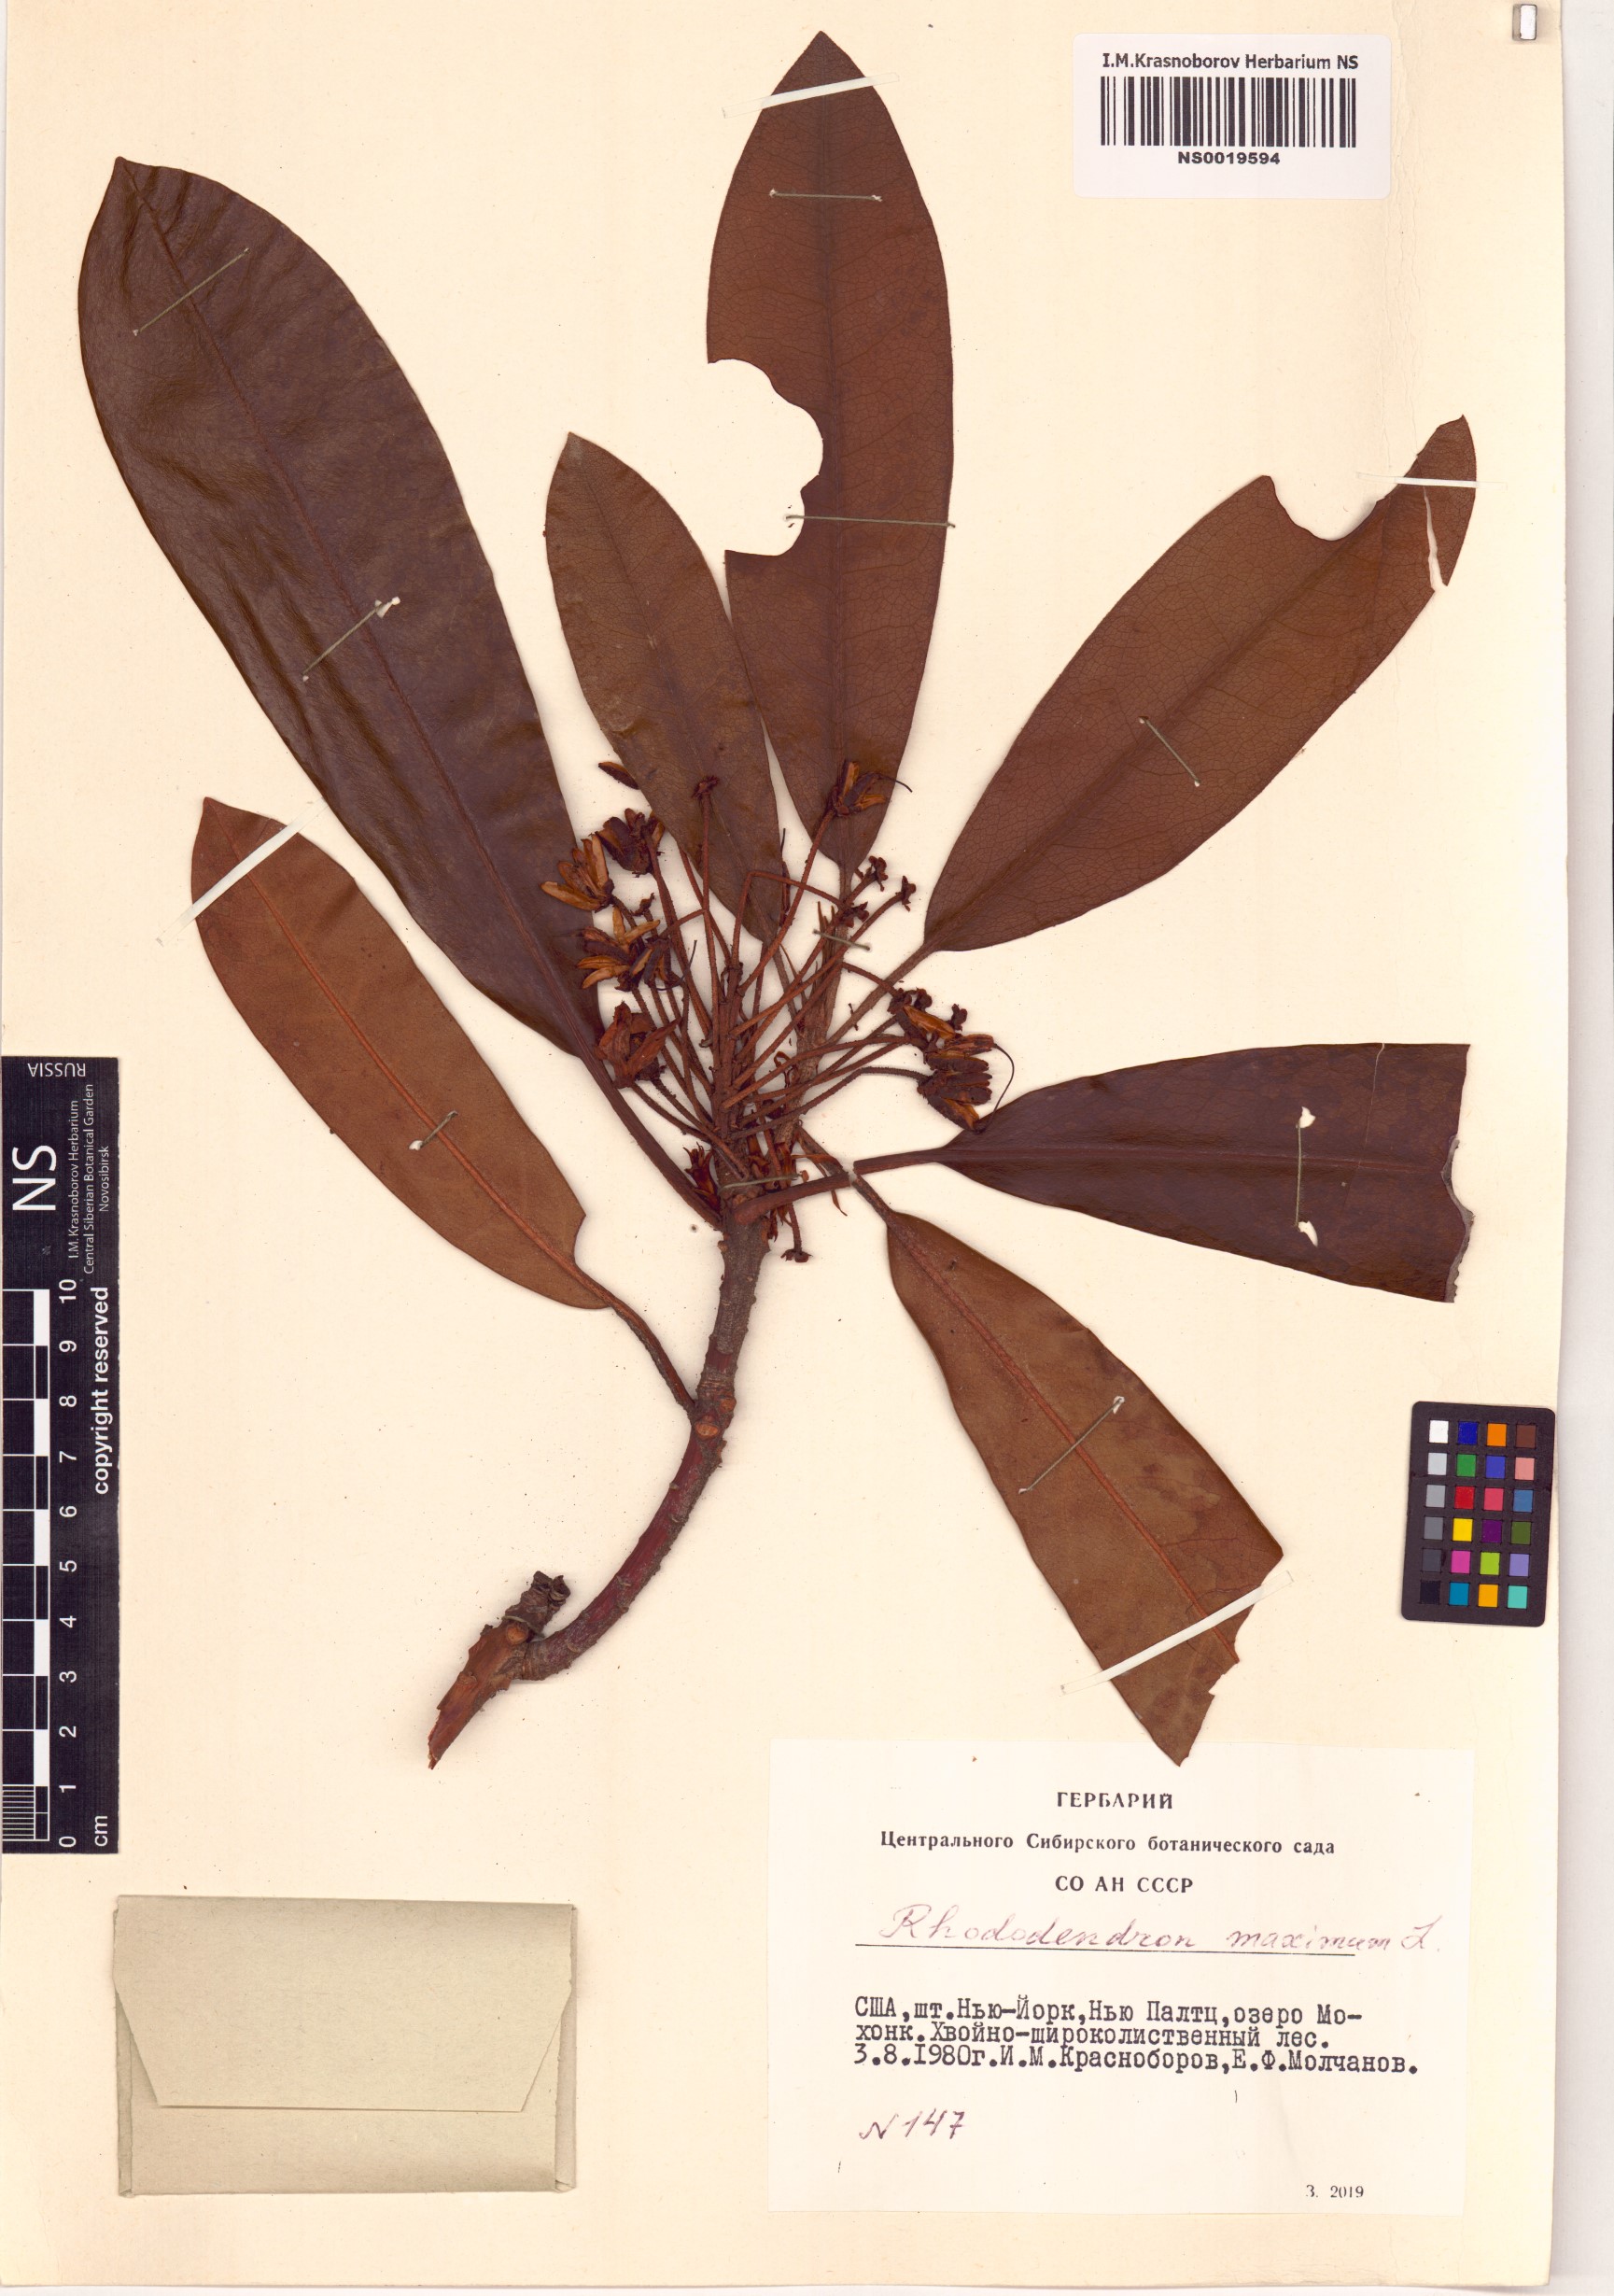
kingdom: Plantae
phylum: Tracheophyta
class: Magnoliopsida
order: Ericales
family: Ericaceae
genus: Rhododendron
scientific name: Rhododendron maximum
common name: Great rhododendron
